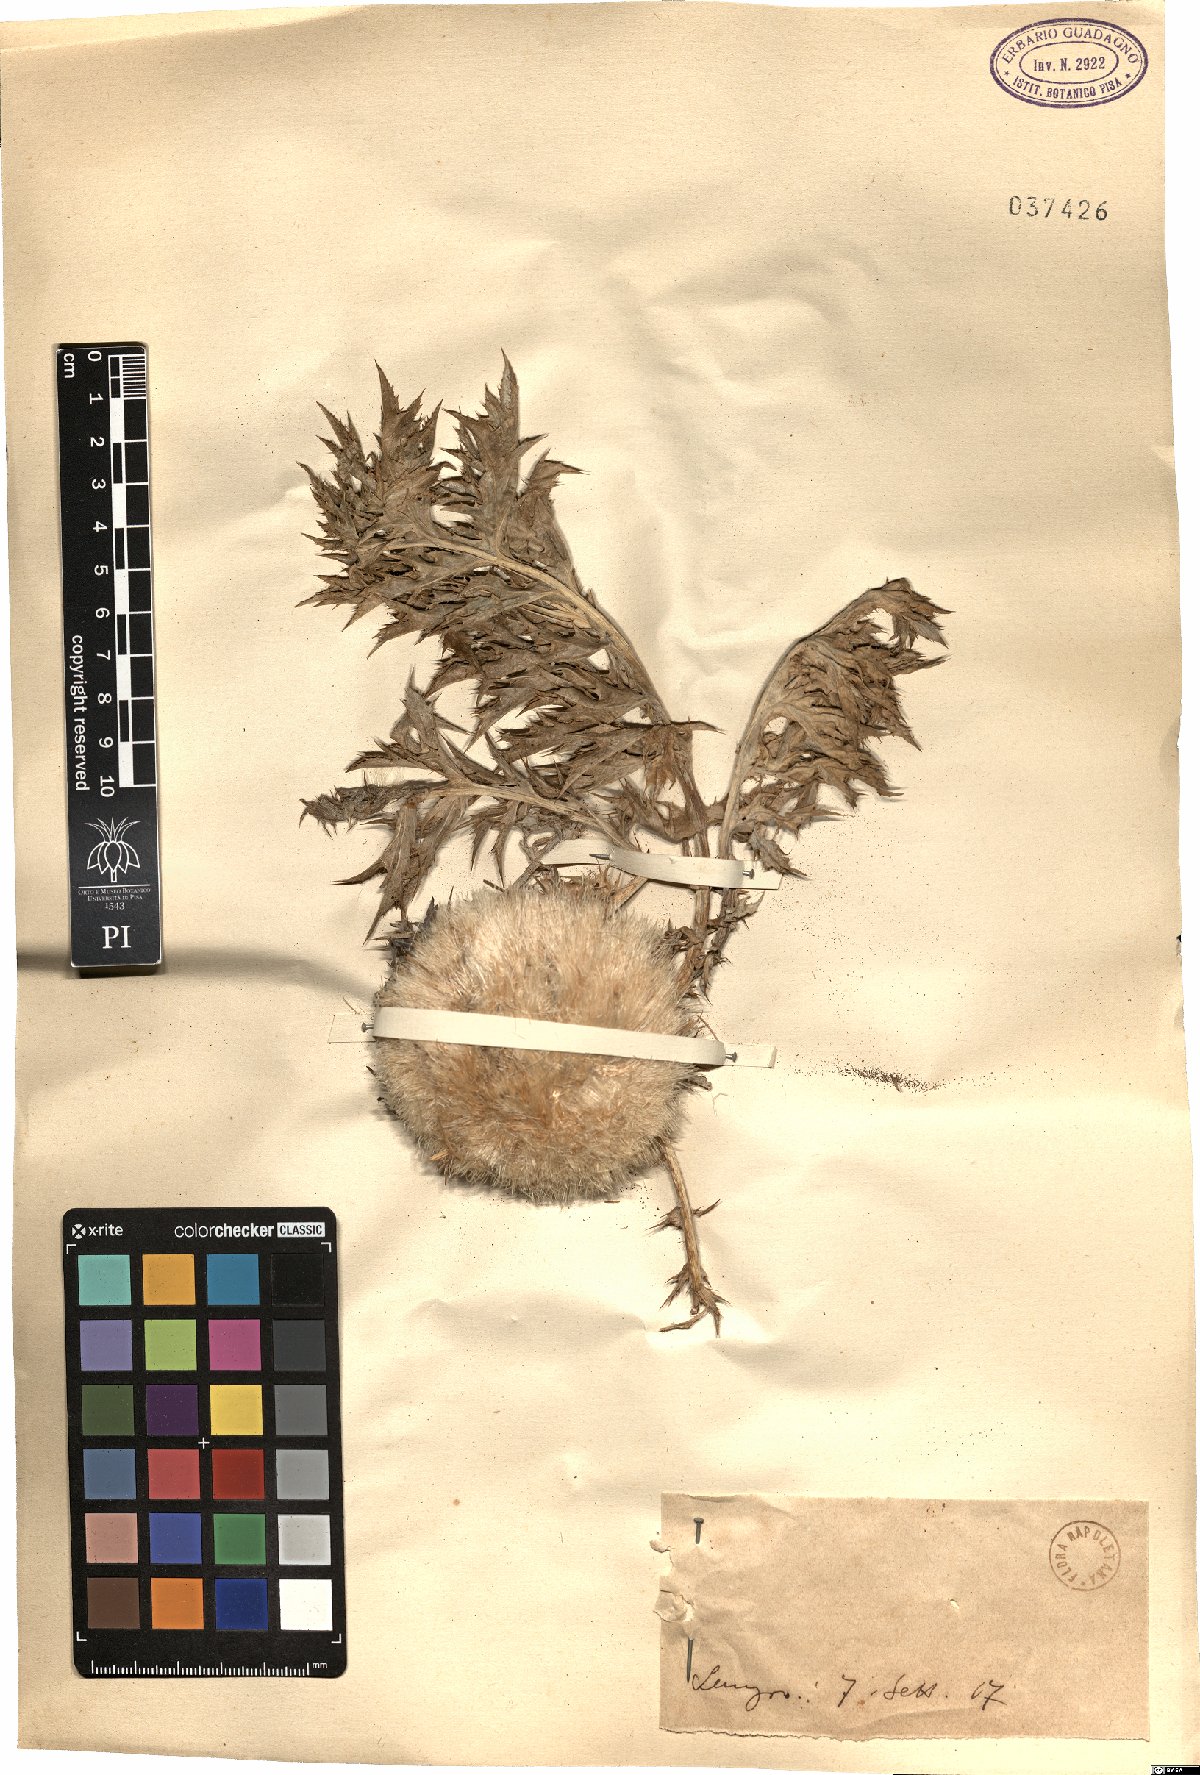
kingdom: Plantae
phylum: Tracheophyta
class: Magnoliopsida
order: Asterales
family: Asteraceae
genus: Carlina
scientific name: Carlina
